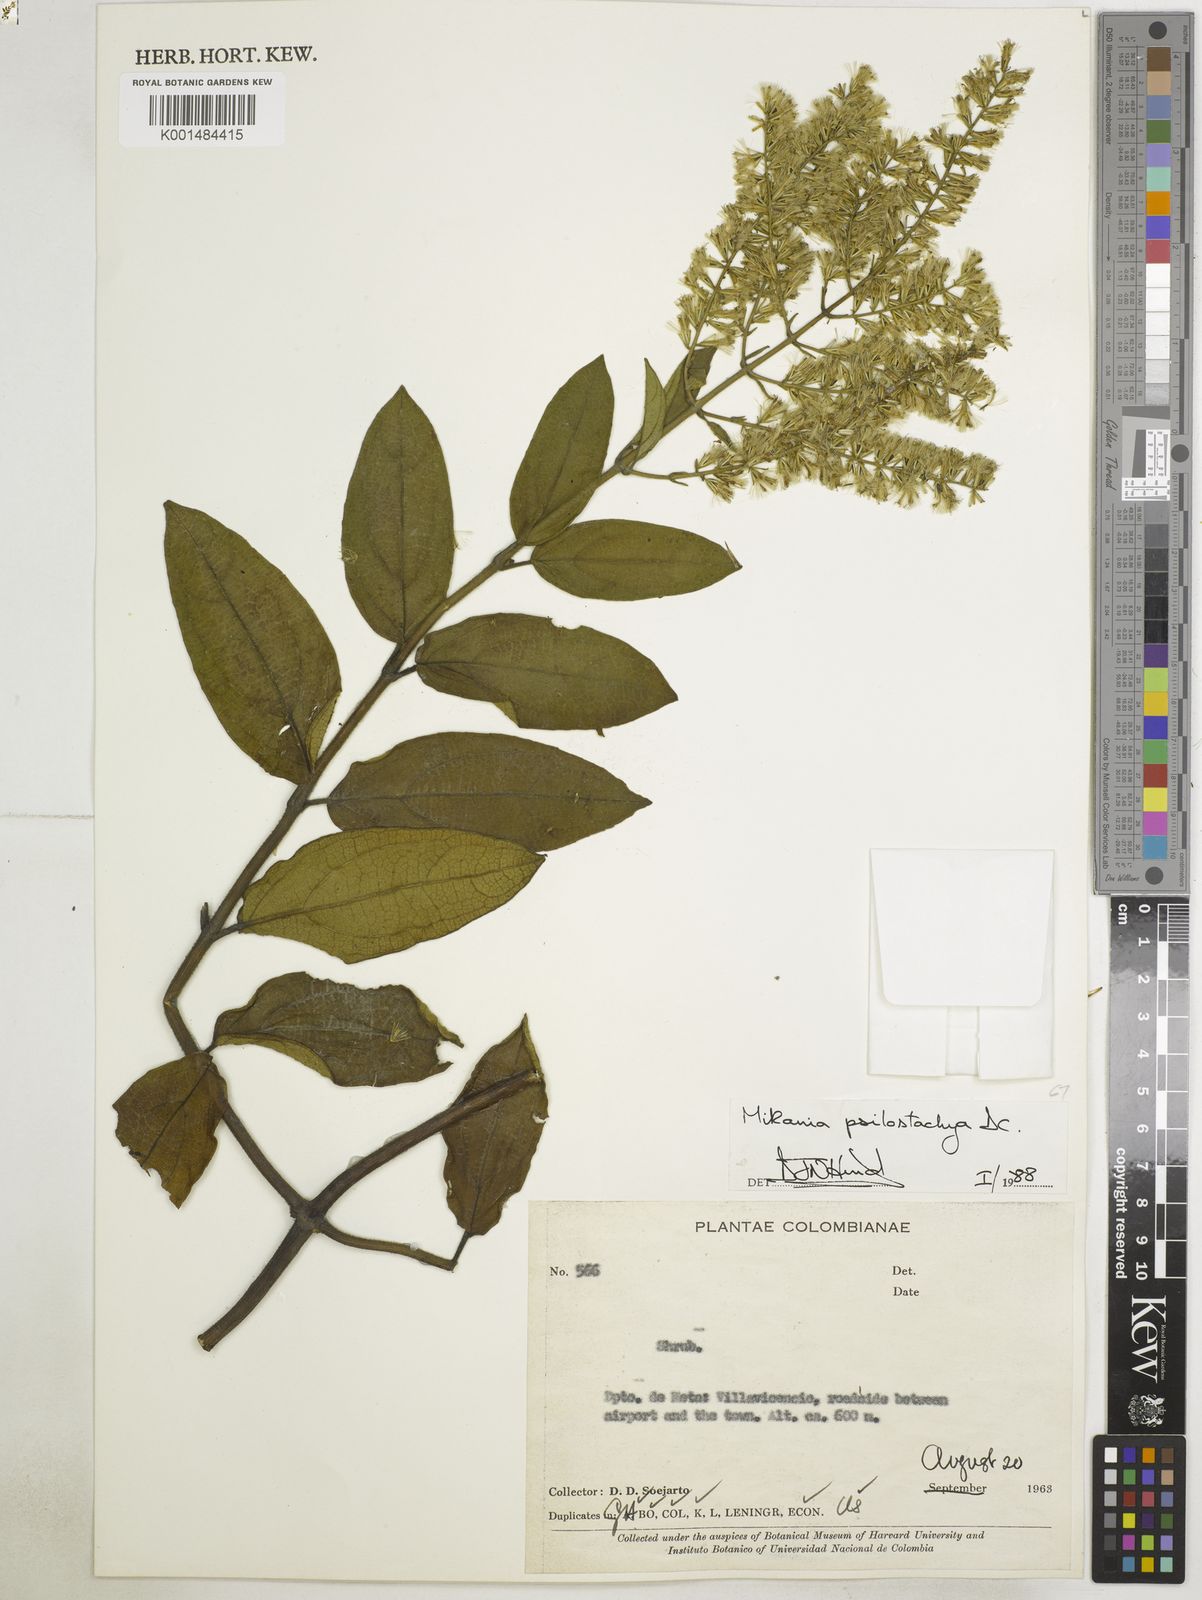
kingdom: Plantae
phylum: Tracheophyta
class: Magnoliopsida
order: Asterales
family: Asteraceae
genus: Mikania
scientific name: Mikania psilostachya
